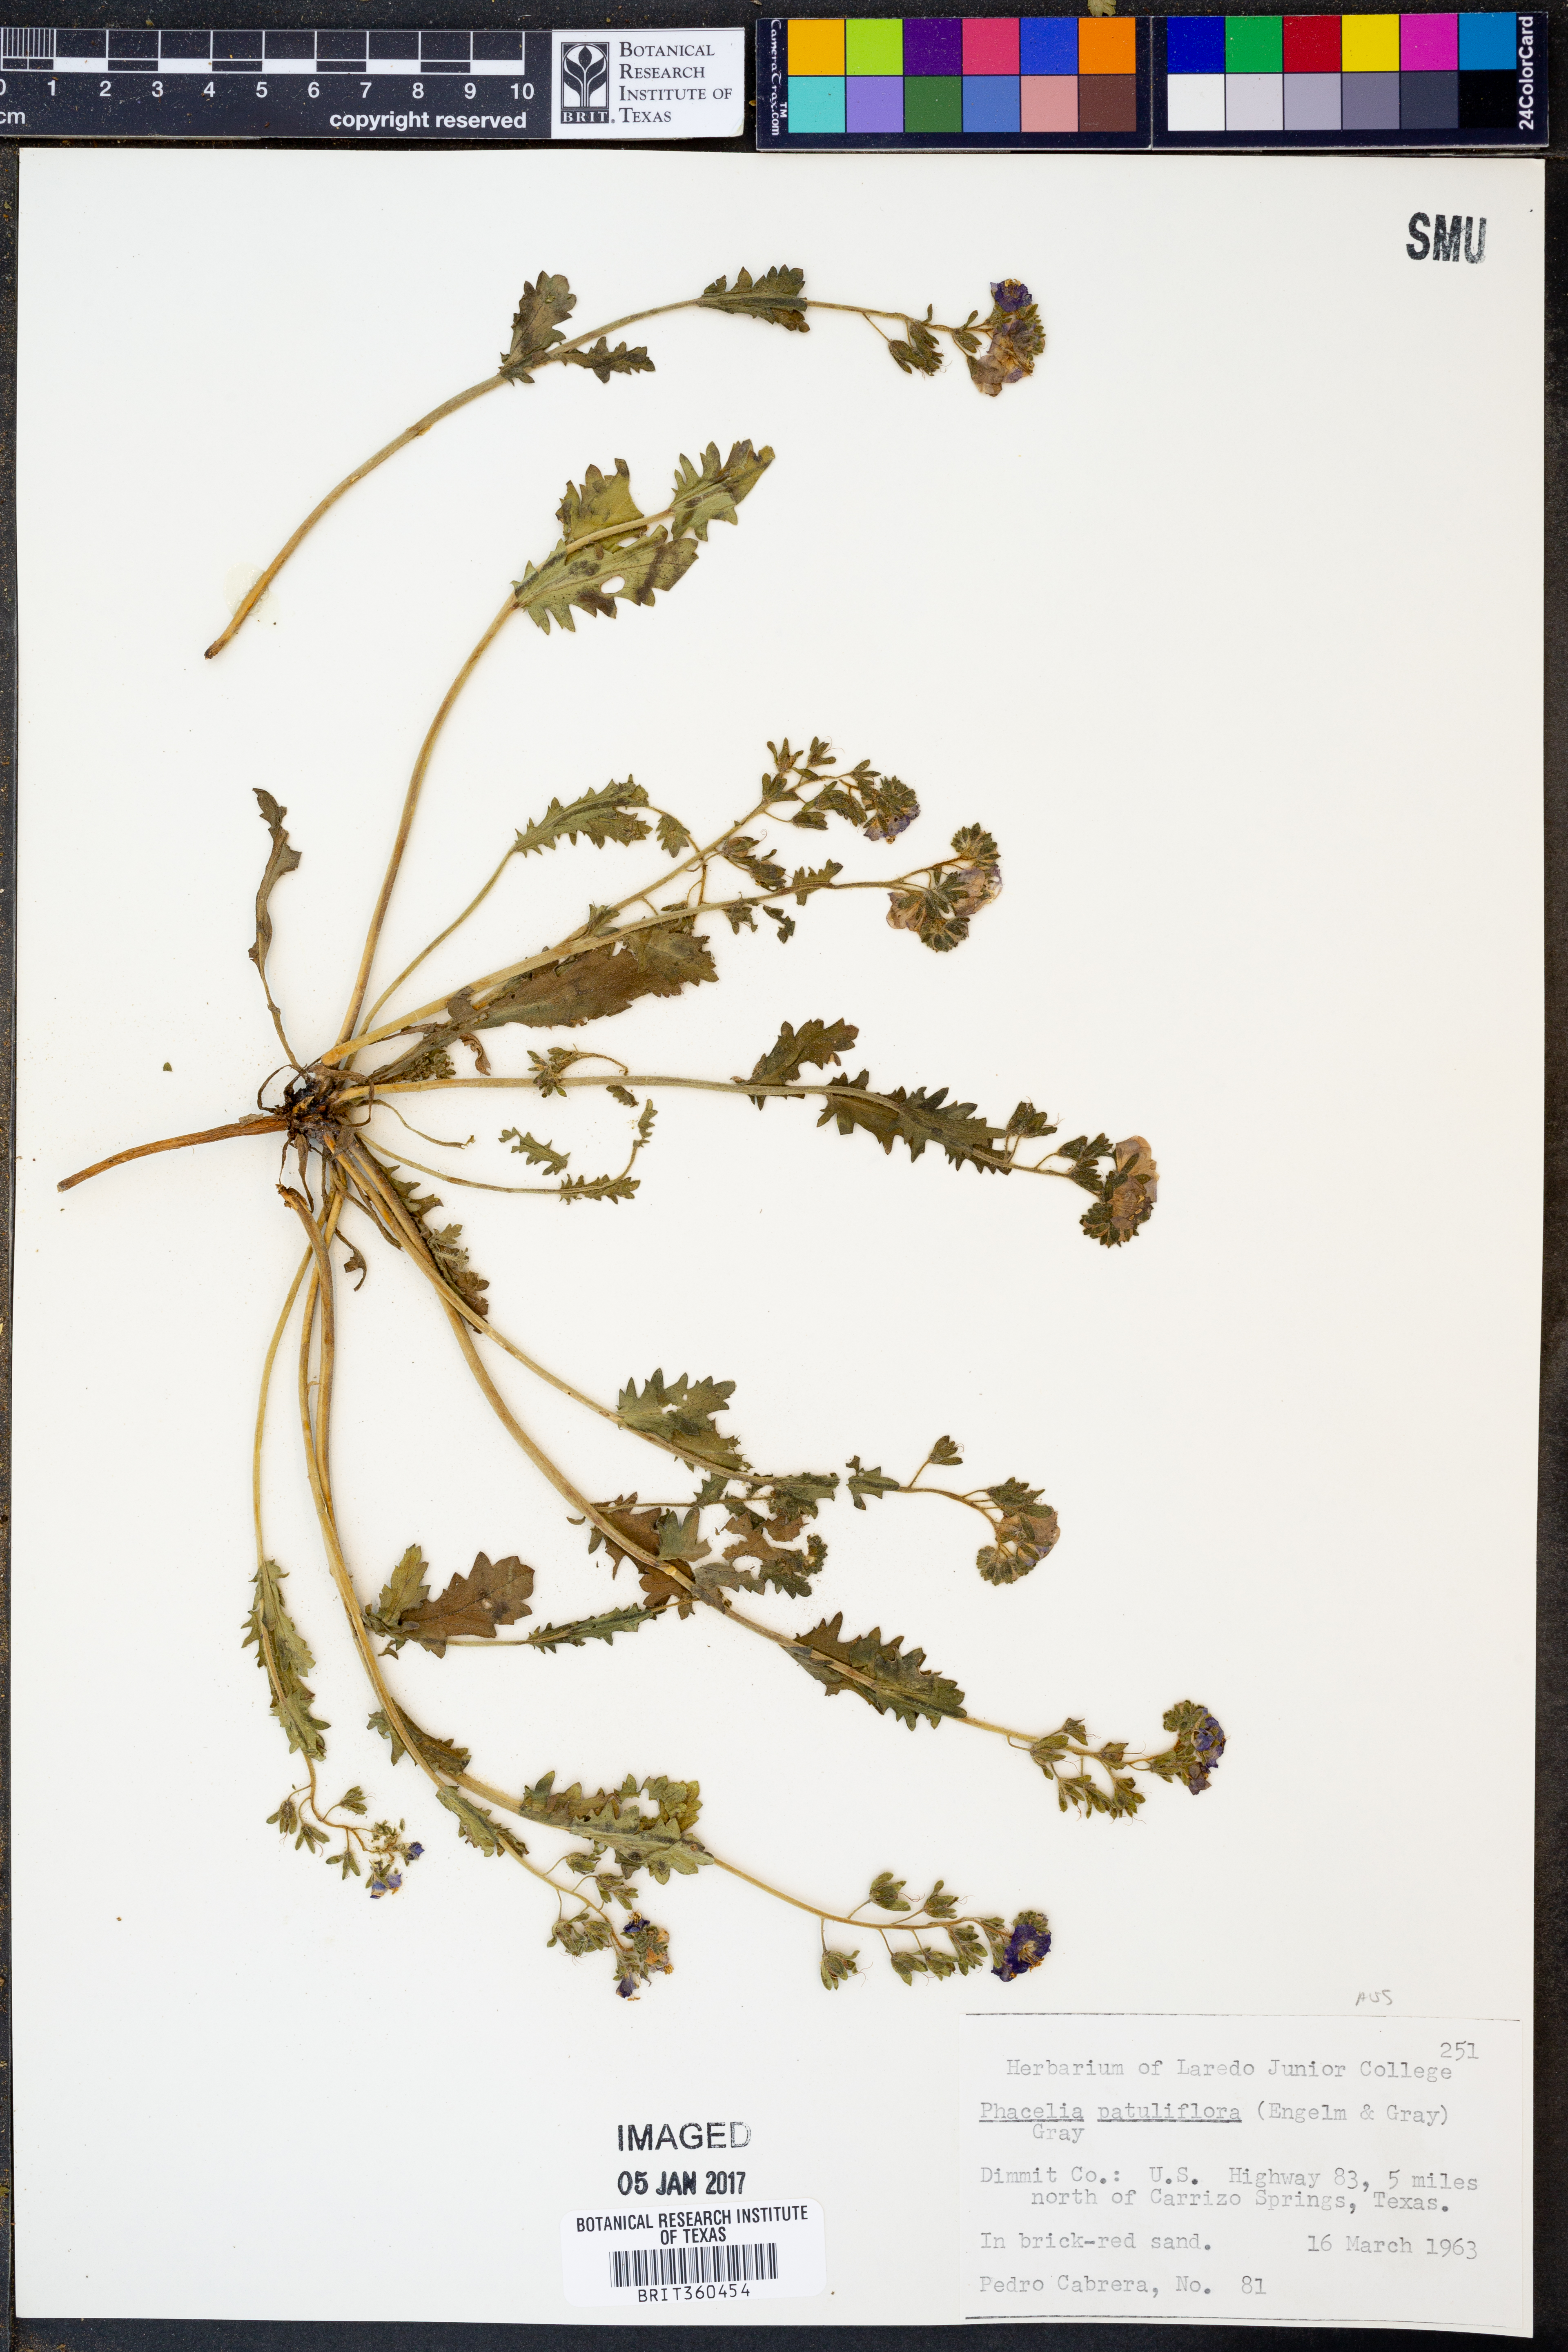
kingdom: Plantae
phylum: Tracheophyta
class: Magnoliopsida
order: Boraginales
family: Hydrophyllaceae
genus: Phacelia
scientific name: Phacelia patuliflora
